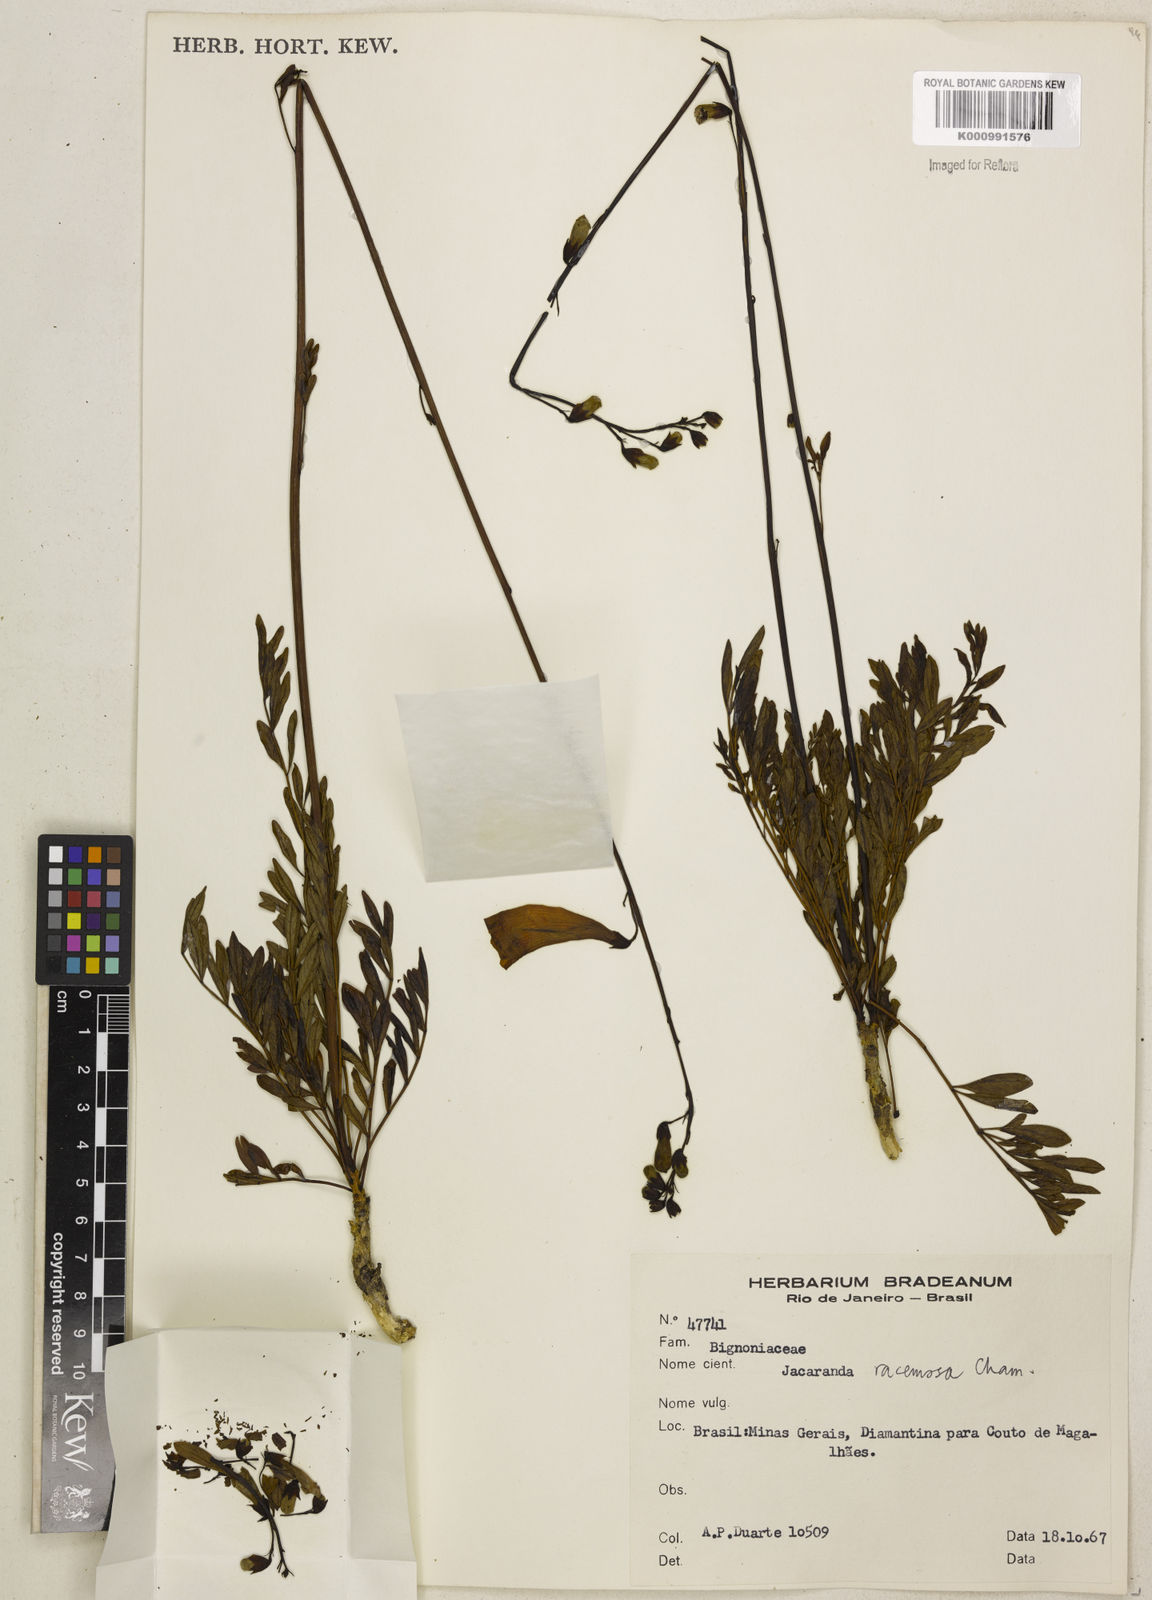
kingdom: Plantae
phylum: Tracheophyta
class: Magnoliopsida
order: Lamiales
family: Bignoniaceae
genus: Jacaranda
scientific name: Jacaranda racemosa
